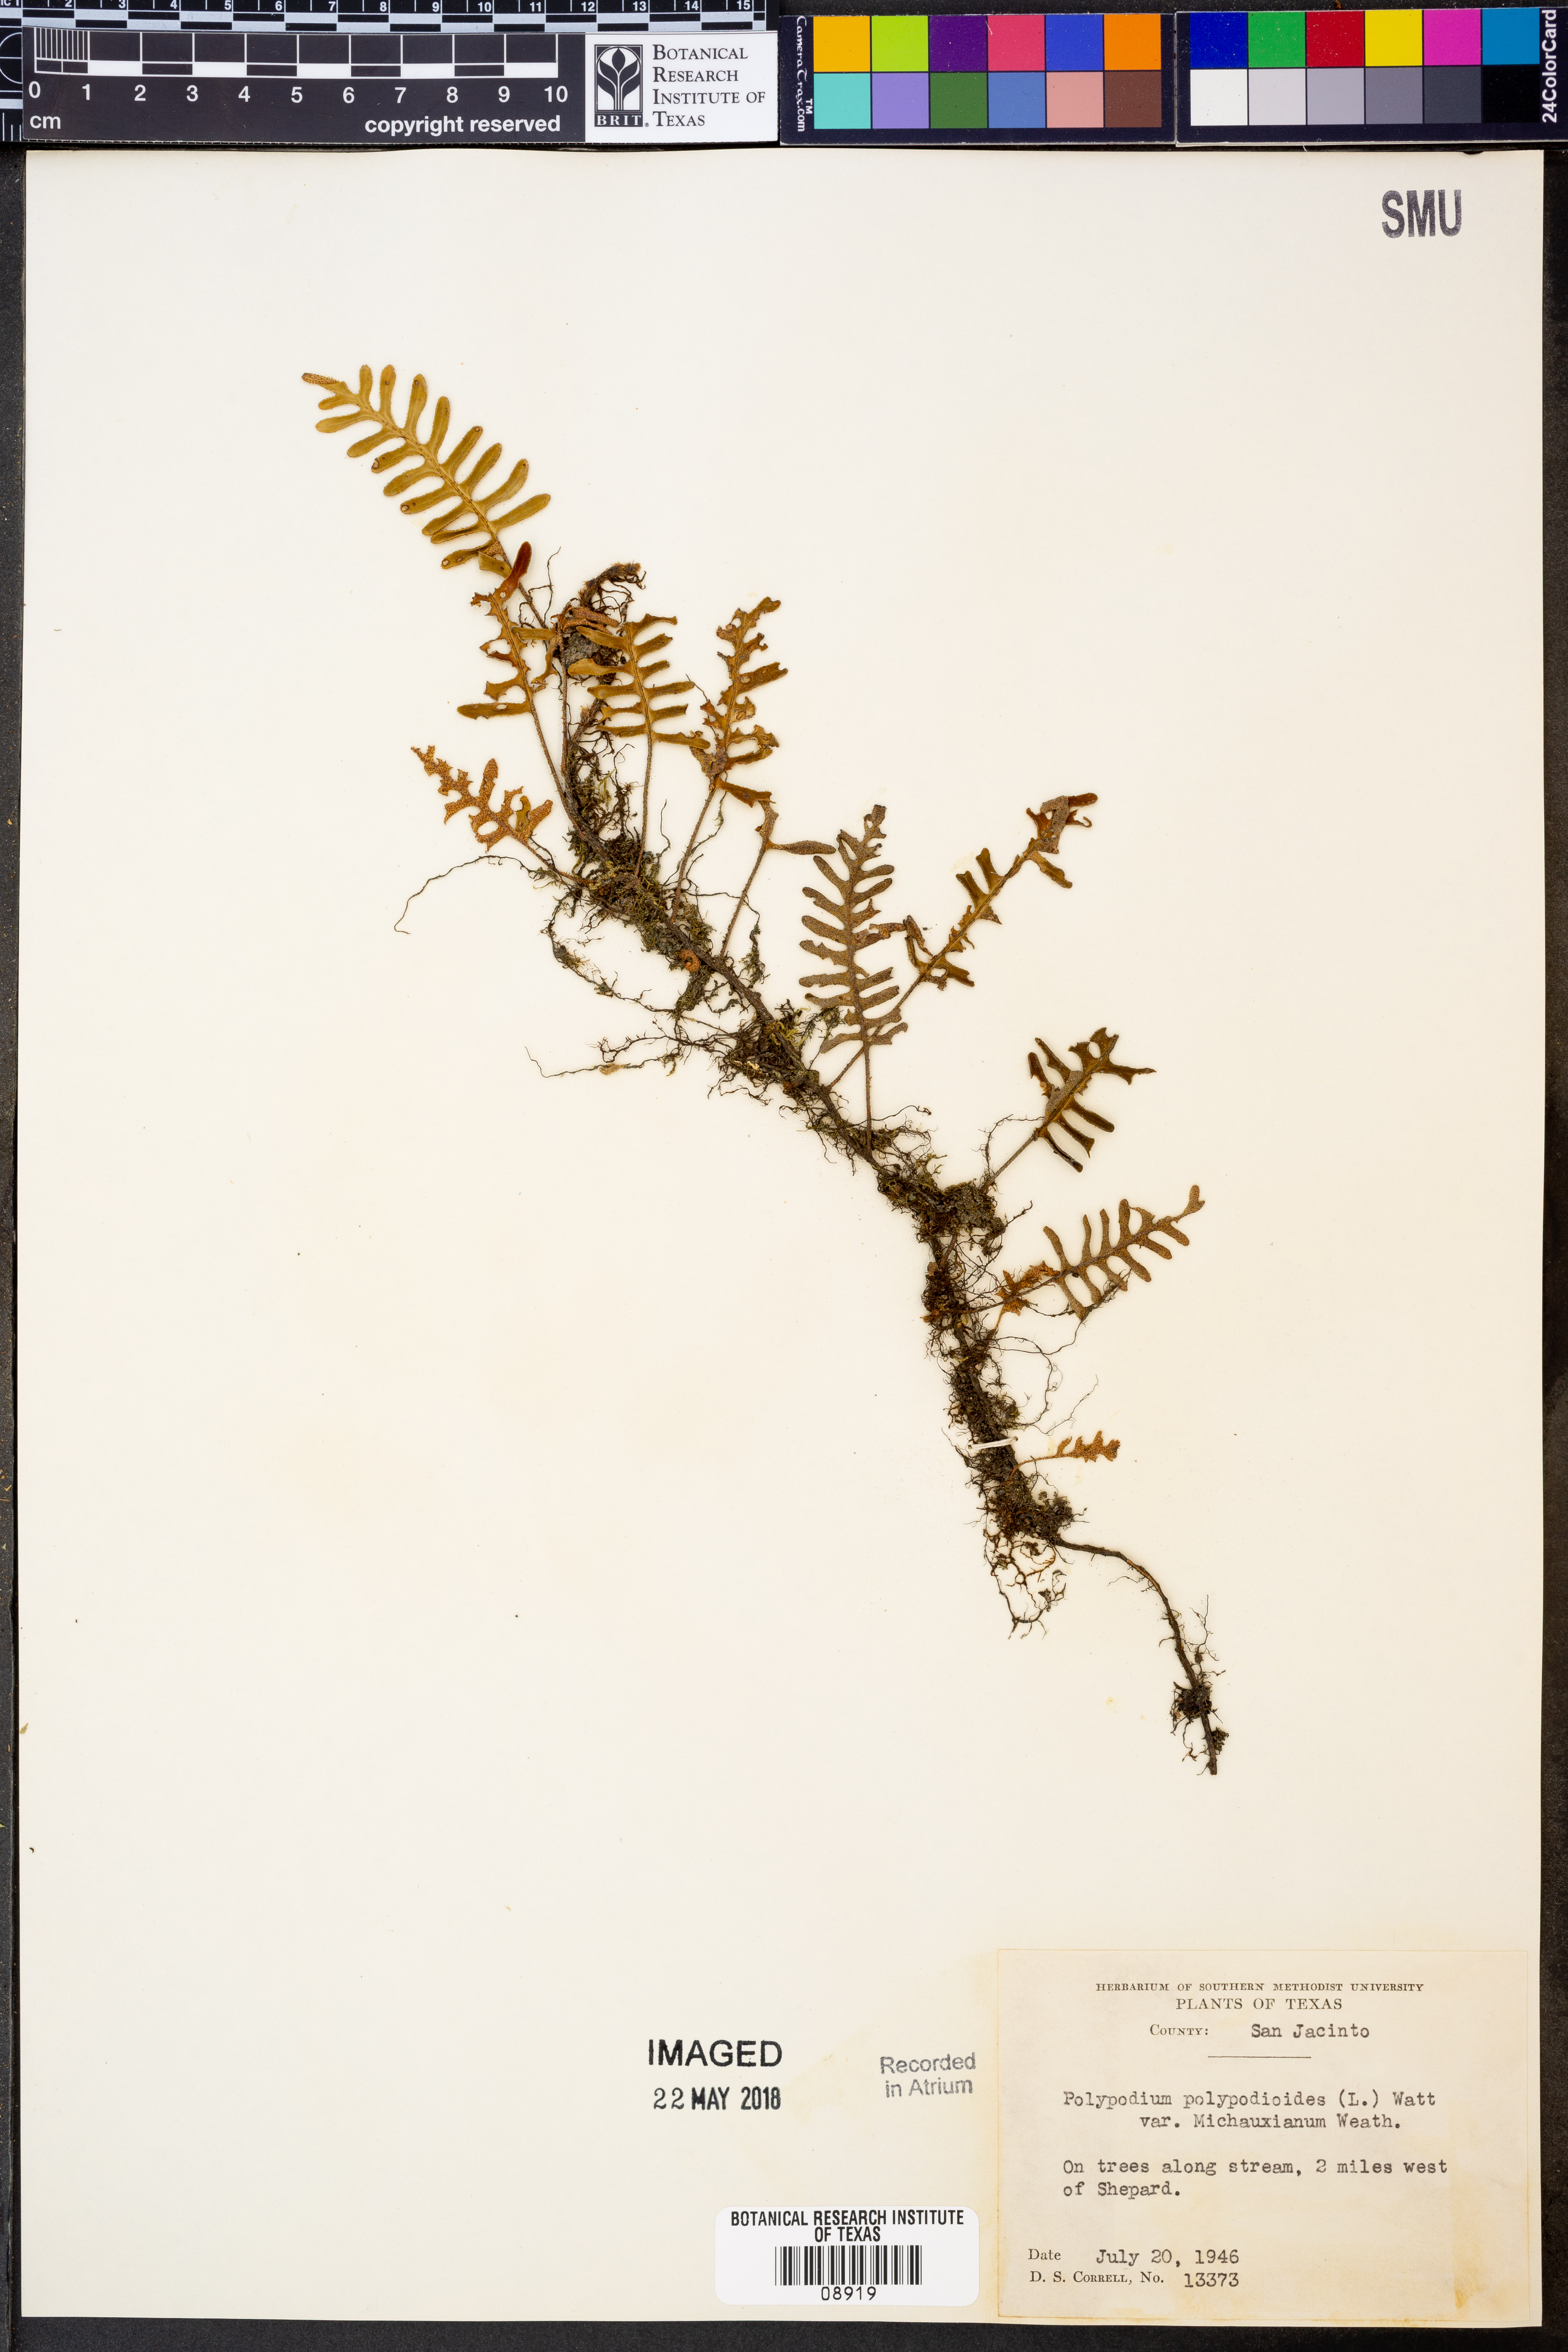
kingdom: Plantae
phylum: Tracheophyta
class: Polypodiopsida
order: Polypodiales
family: Polypodiaceae
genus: Pleopeltis
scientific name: Pleopeltis michauxiana
